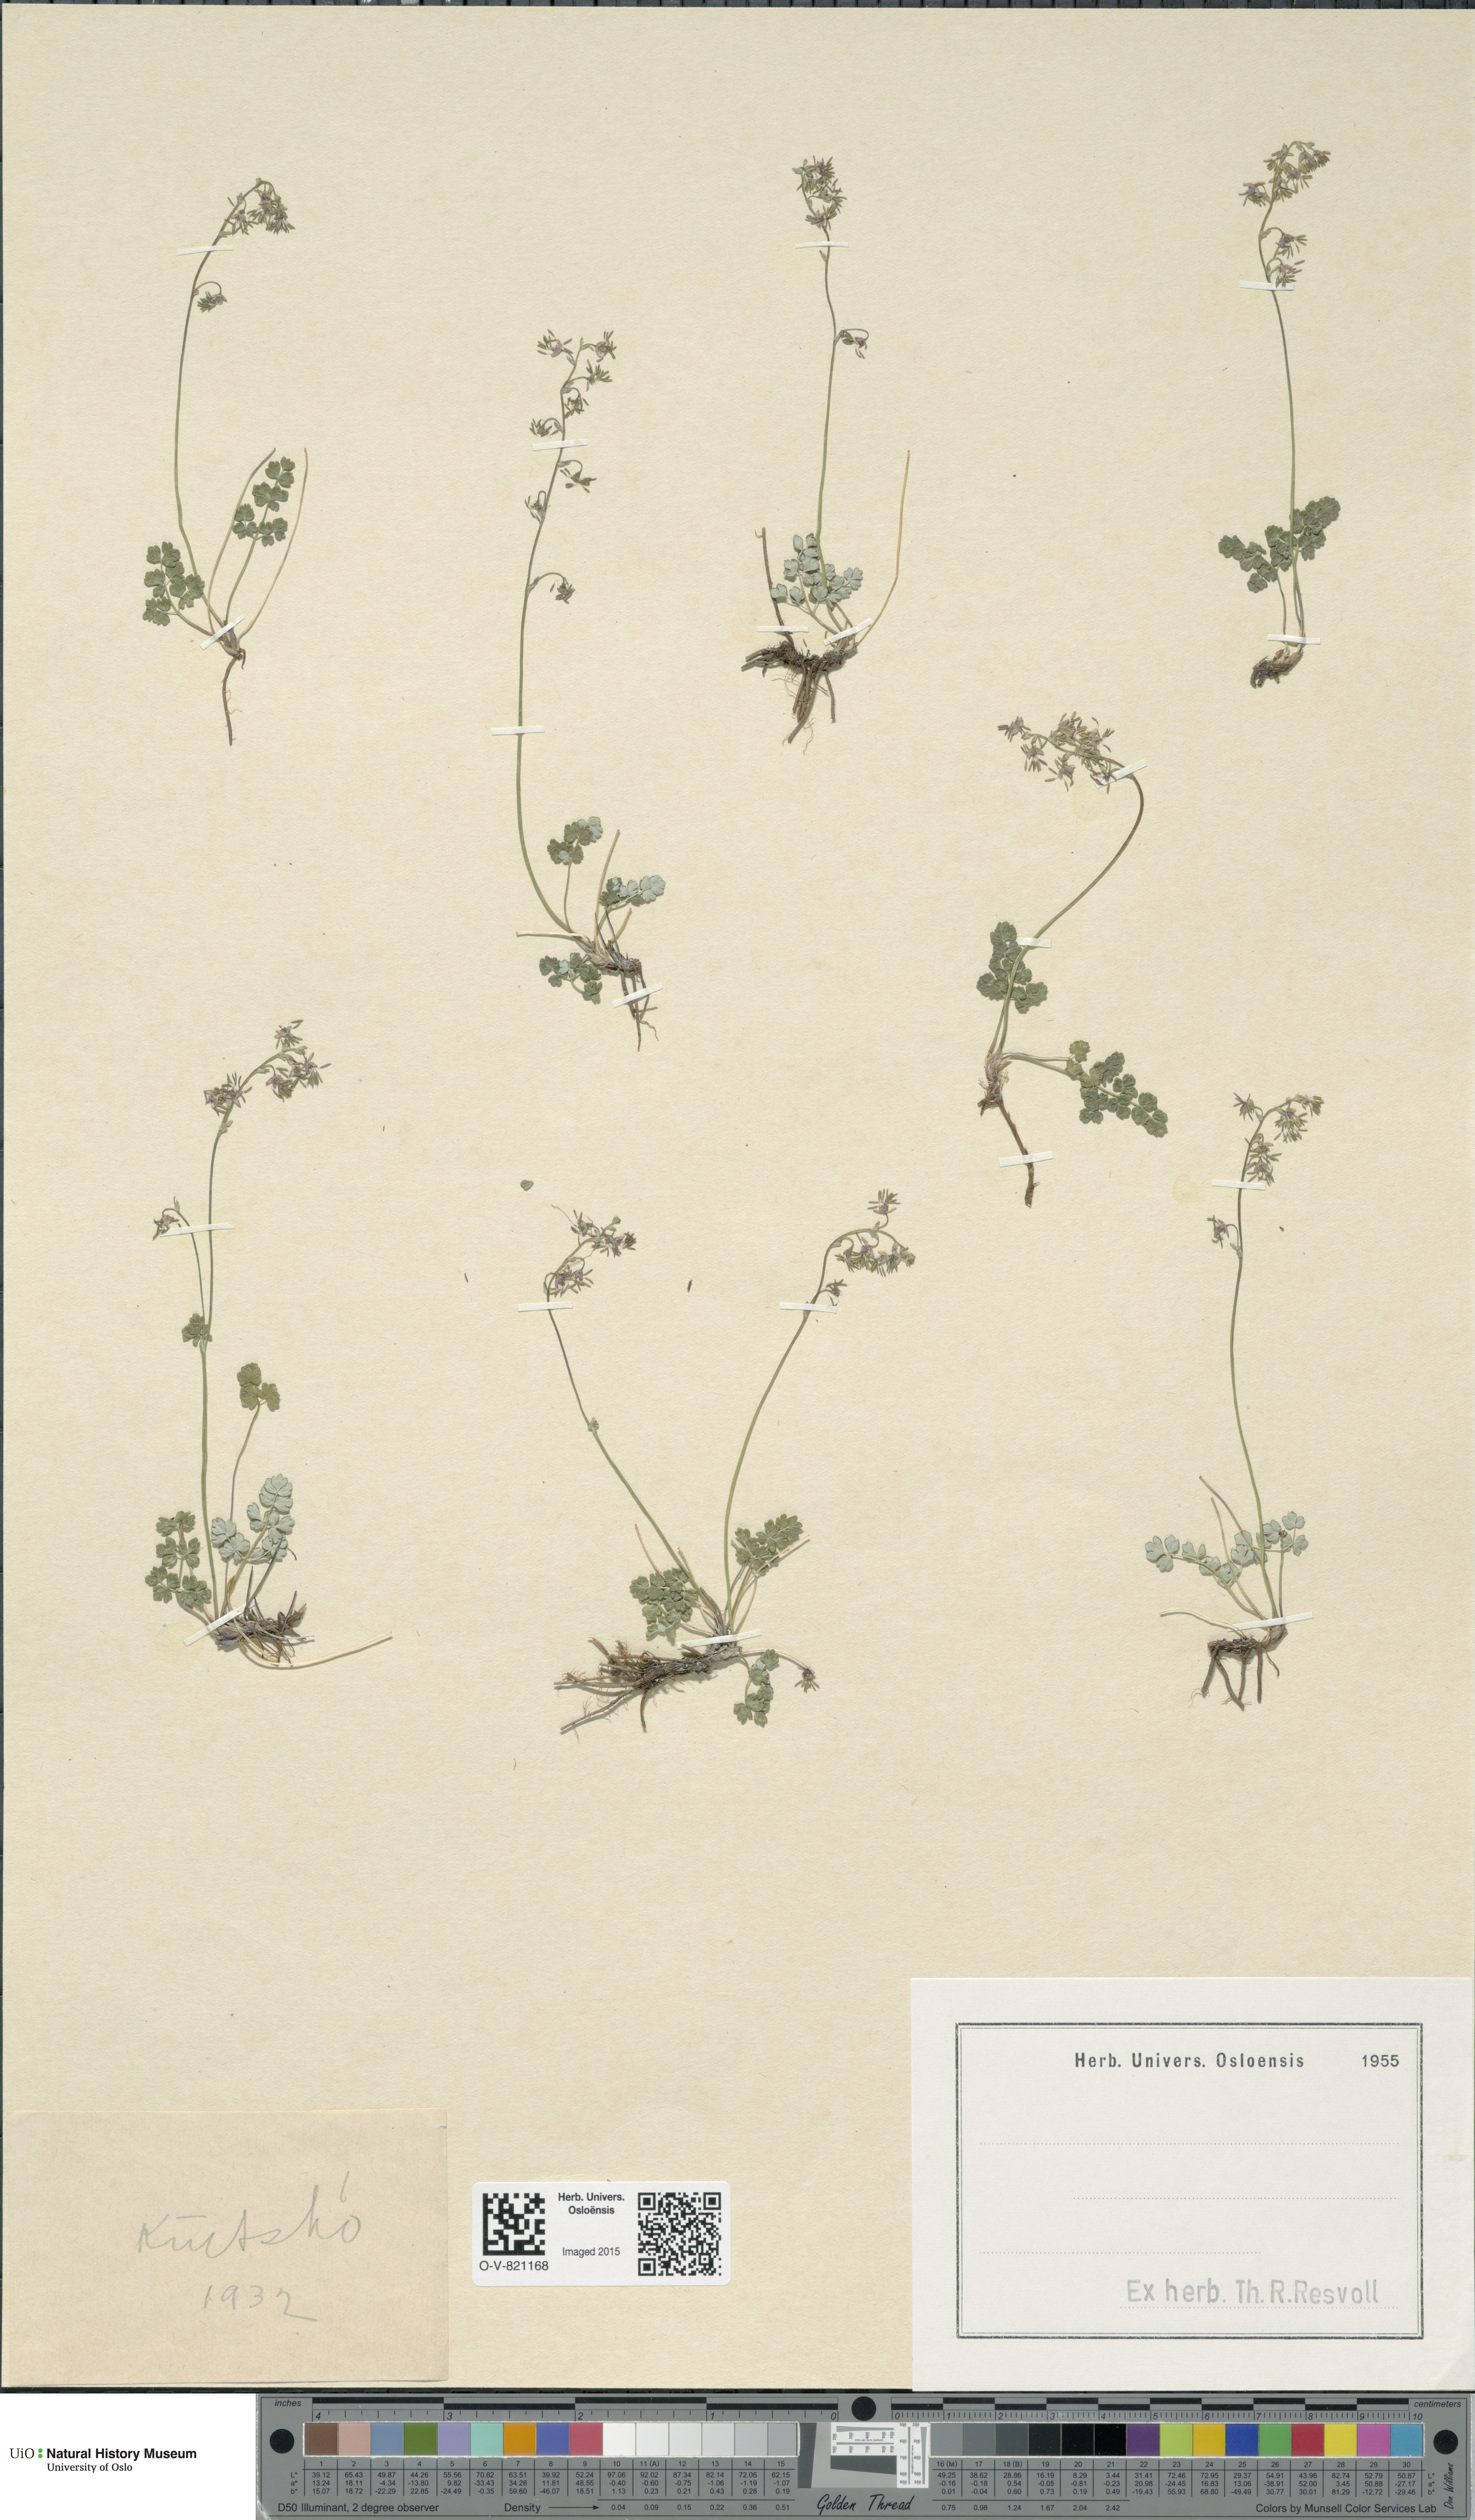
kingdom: Plantae
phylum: Tracheophyta
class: Magnoliopsida
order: Ranunculales
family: Ranunculaceae
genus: Thalictrum
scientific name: Thalictrum alpinum
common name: Alpine meadow-rue
